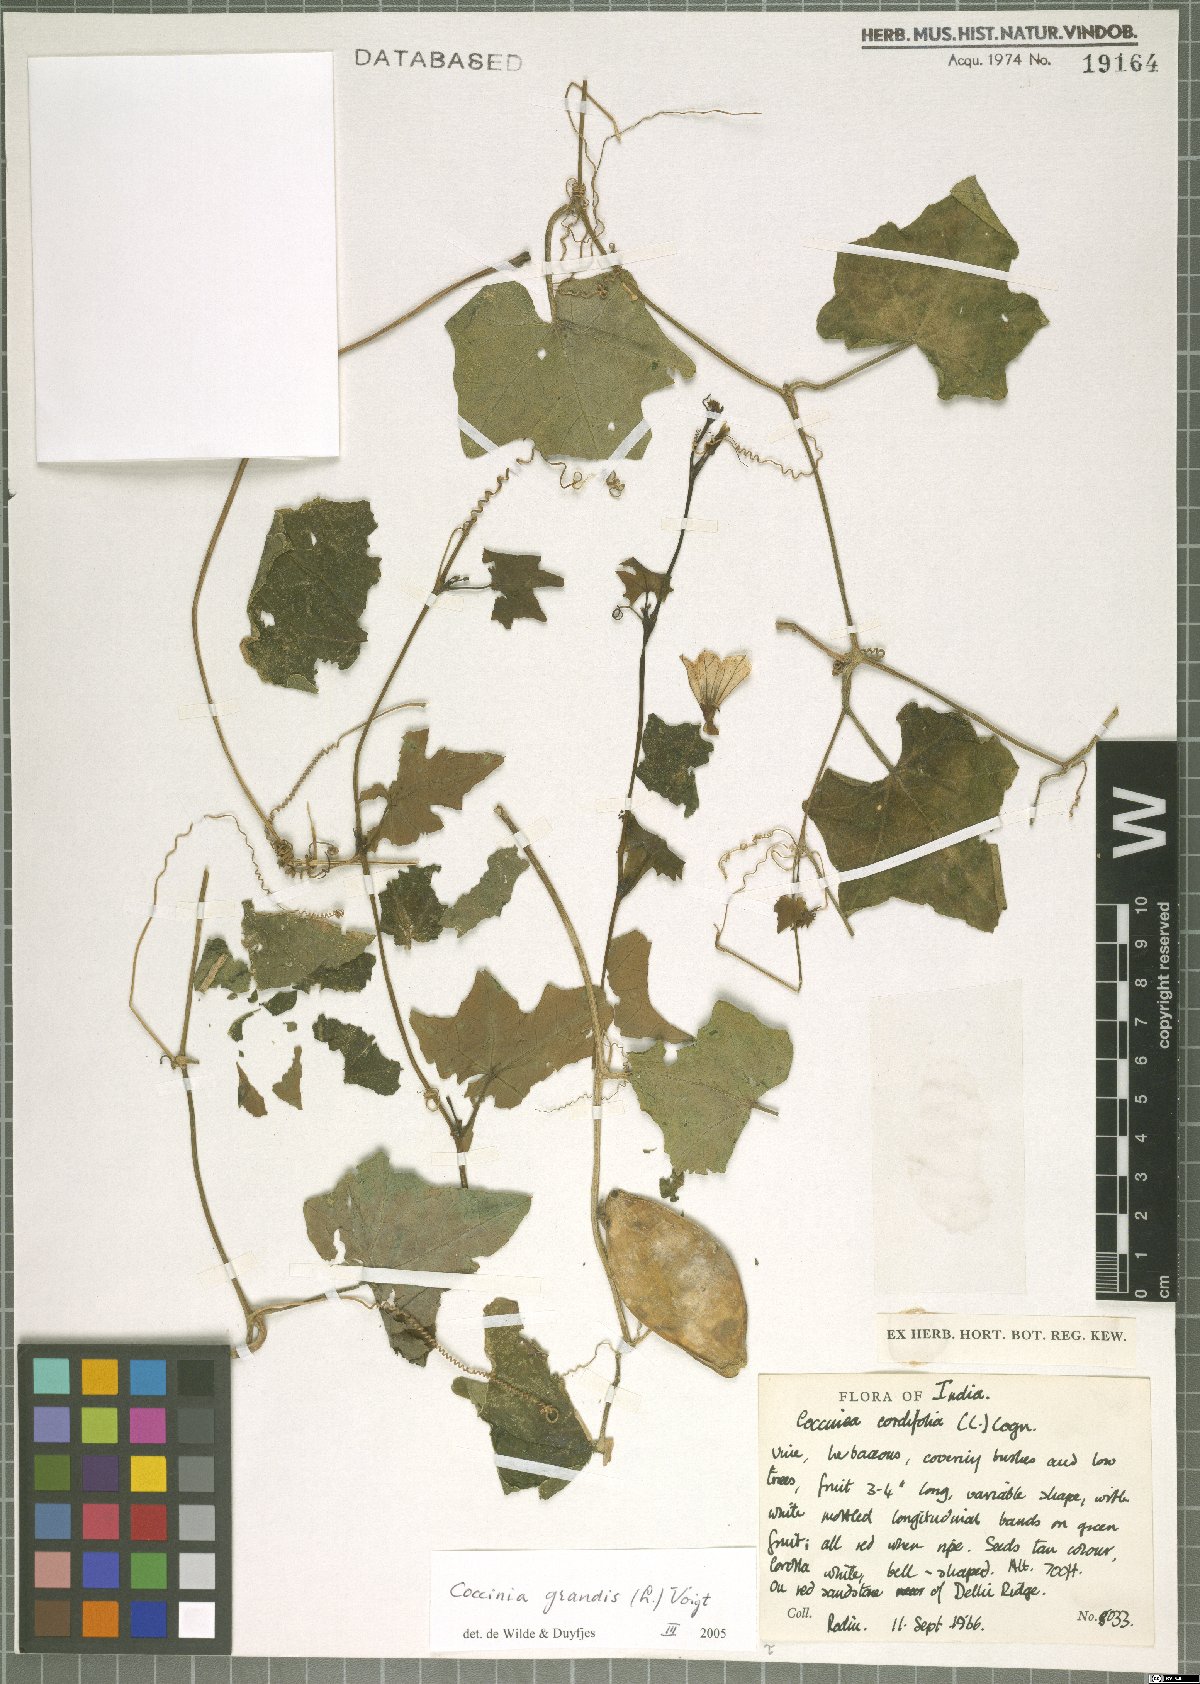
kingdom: Plantae
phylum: Tracheophyta
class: Magnoliopsida
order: Cucurbitales
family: Cucurbitaceae
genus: Coccinia
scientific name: Coccinia grandis
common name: Ivy gourd
